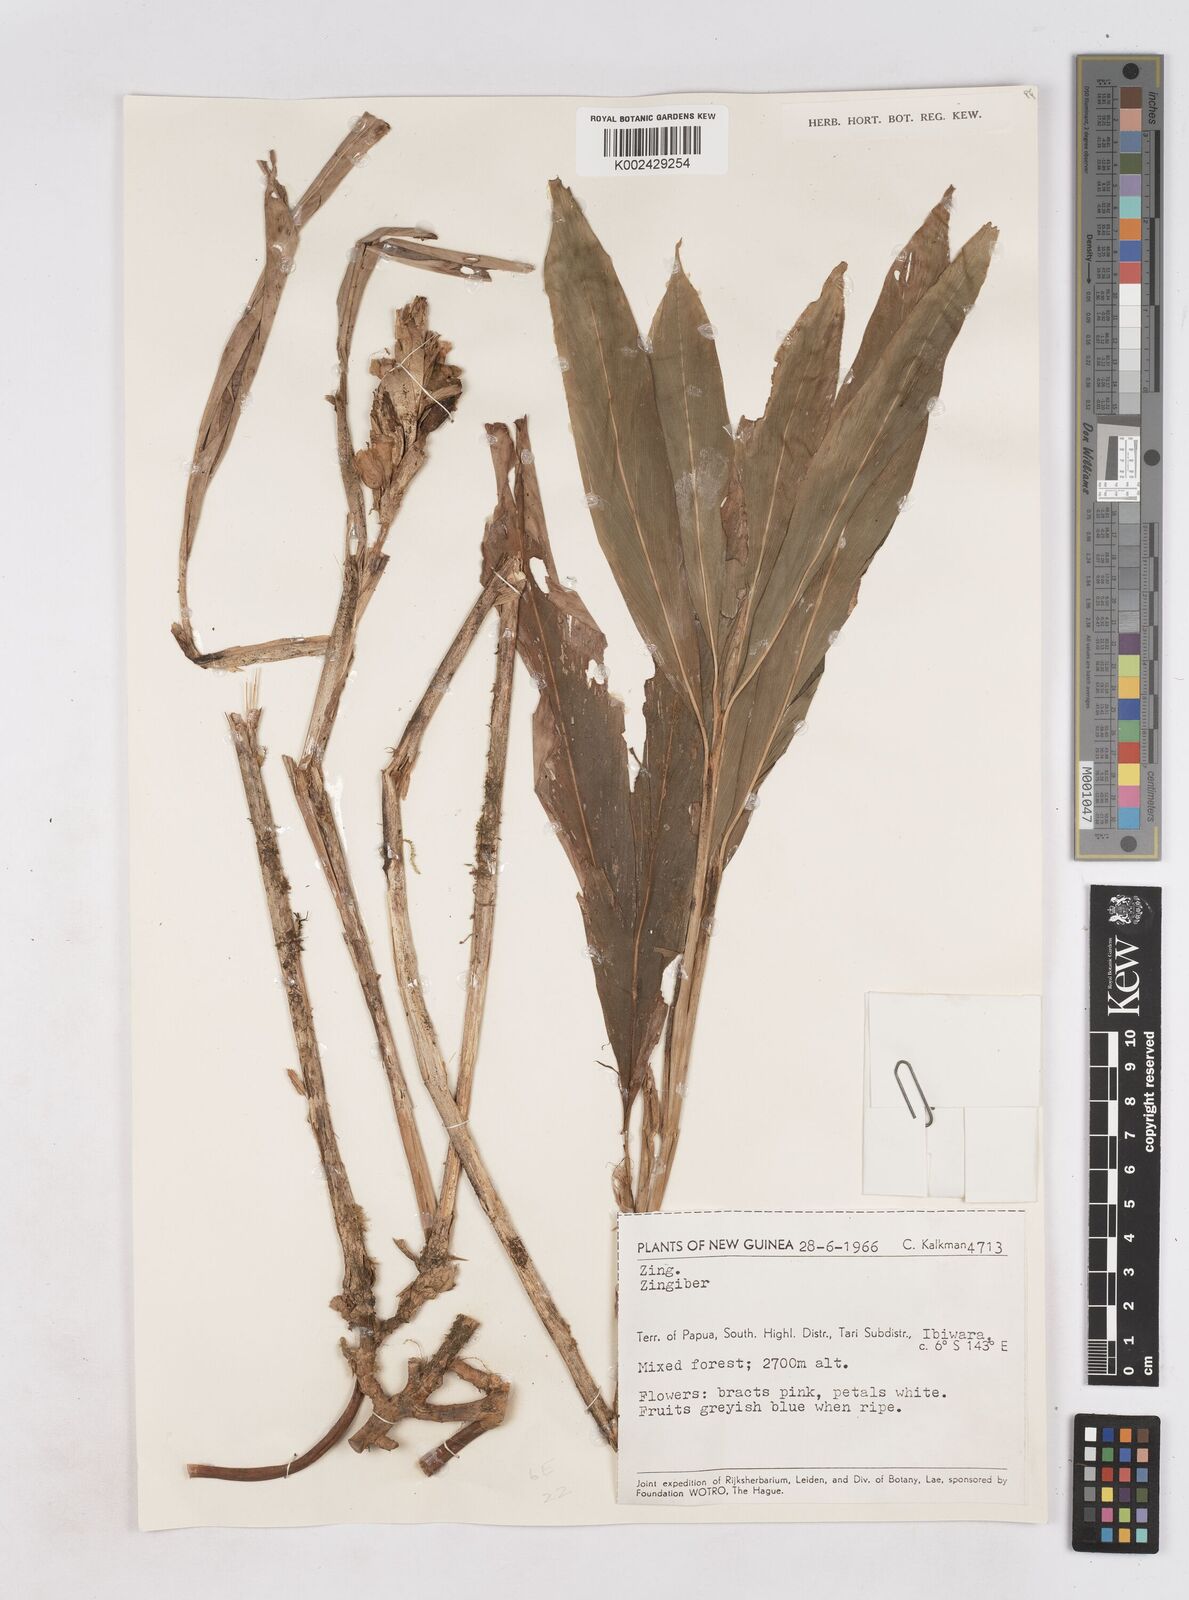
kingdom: Plantae
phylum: Tracheophyta
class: Liliopsida
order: Zingiberales
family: Zingiberaceae
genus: Zingiber
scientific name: Zingiber
